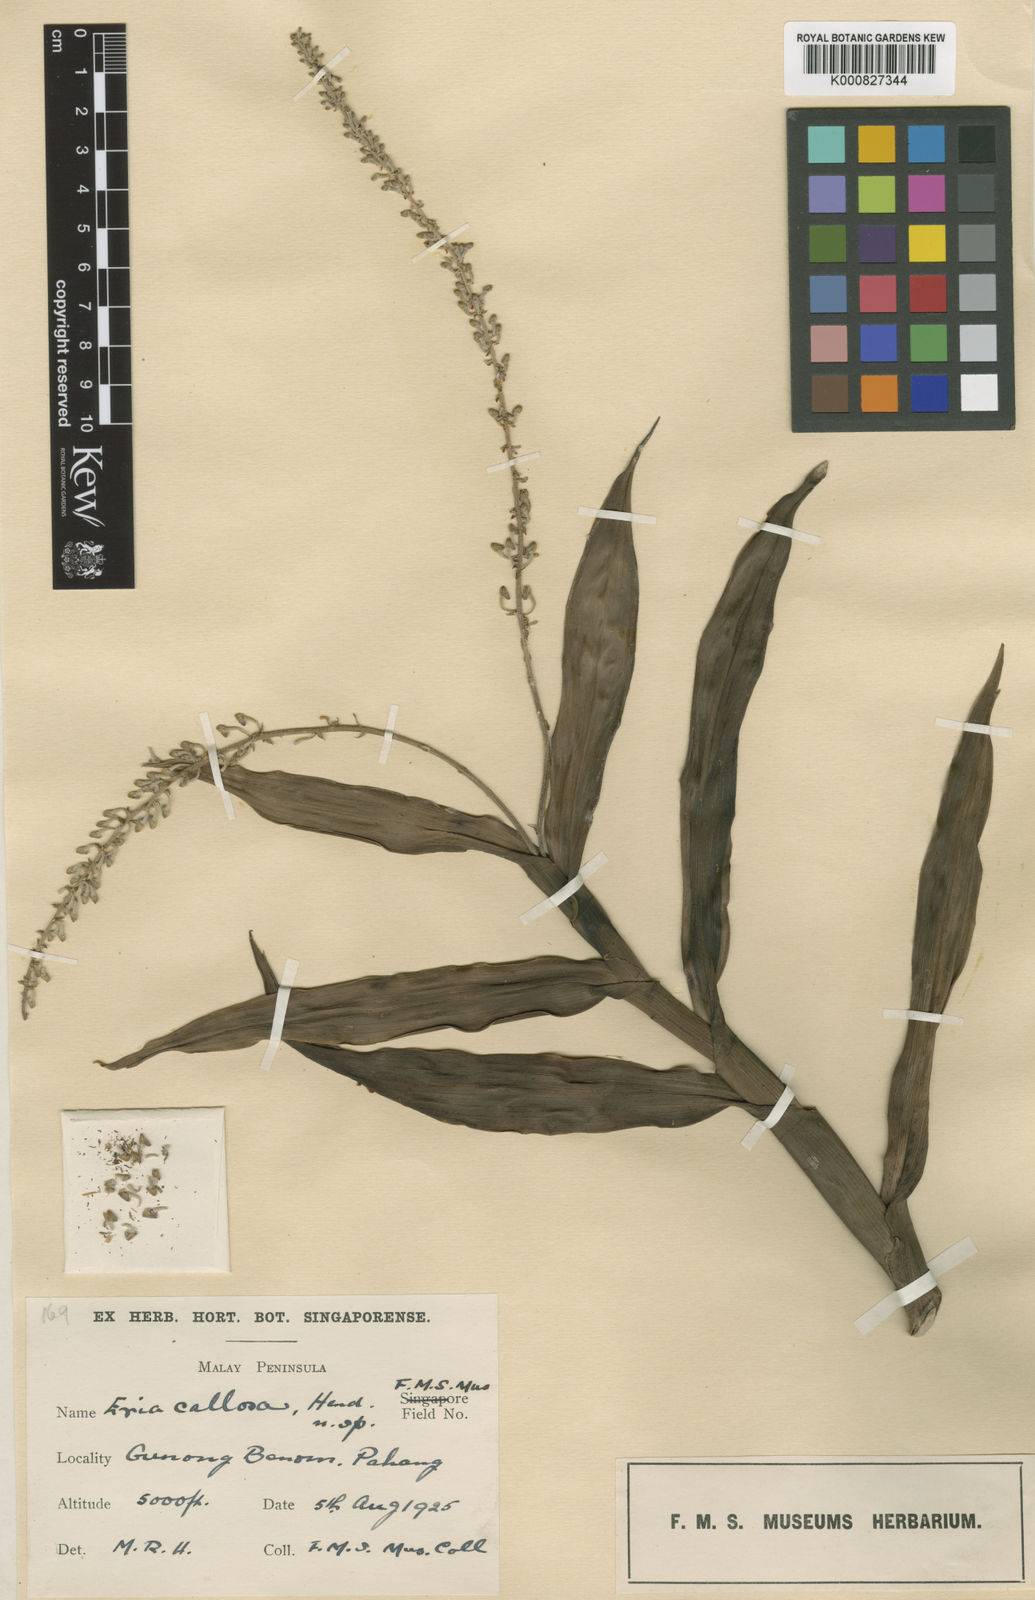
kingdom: Plantae
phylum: Tracheophyta
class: Liliopsida
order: Asparagales
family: Orchidaceae
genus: Mycaranthes
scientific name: Mycaranthes oblitterata
